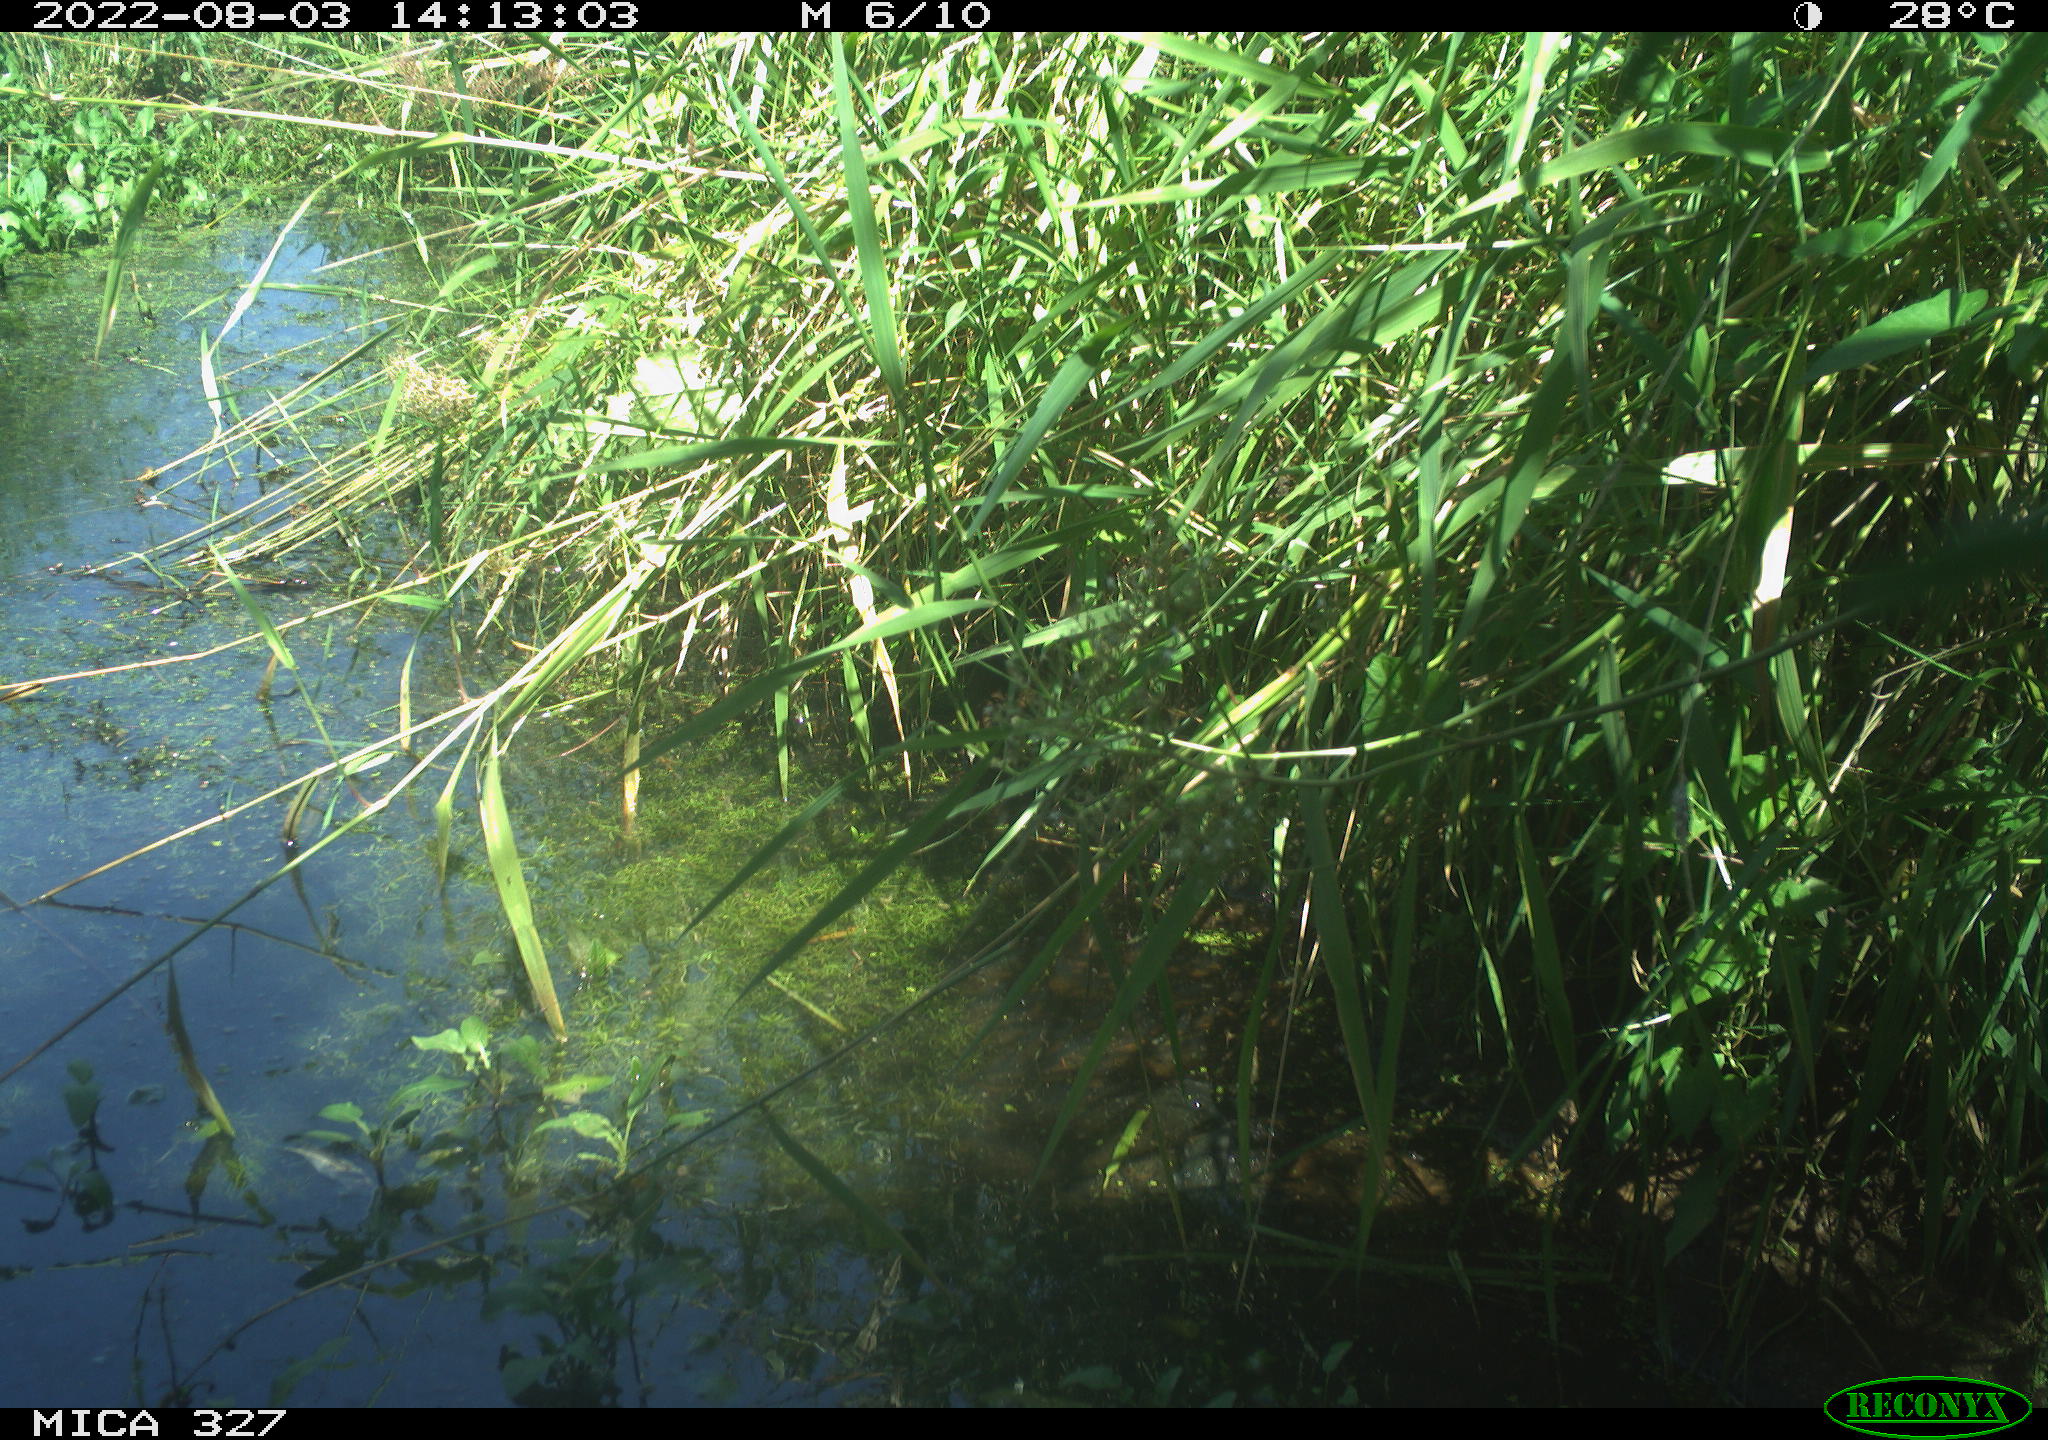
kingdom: Animalia
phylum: Chordata
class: Aves
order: Gruiformes
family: Rallidae
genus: Gallinula
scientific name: Gallinula chloropus
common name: Common moorhen
